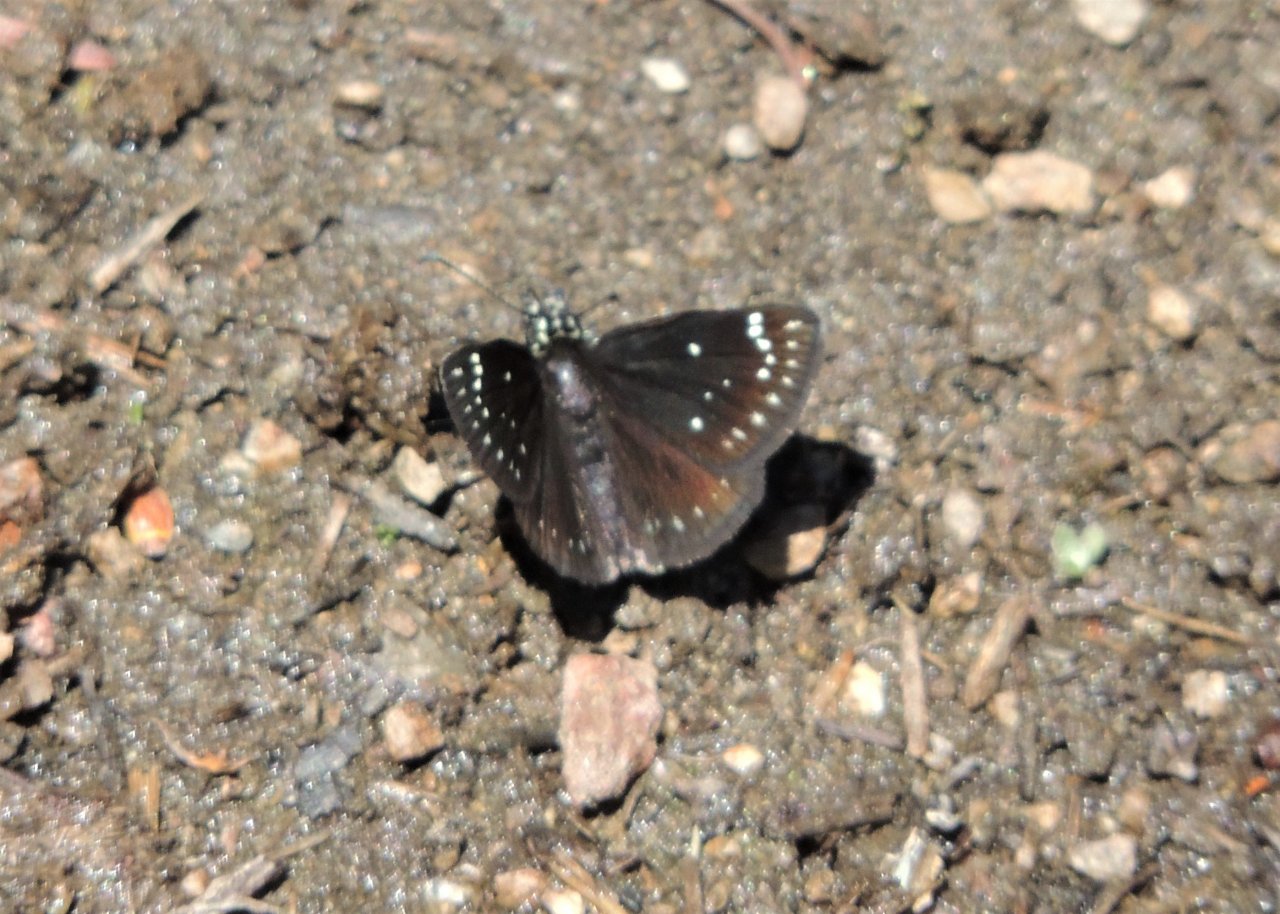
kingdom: Animalia
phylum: Arthropoda
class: Insecta
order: Lepidoptera
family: Hesperiidae
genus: Pholisora
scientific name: Pholisora catullus
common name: Common Sootywing
